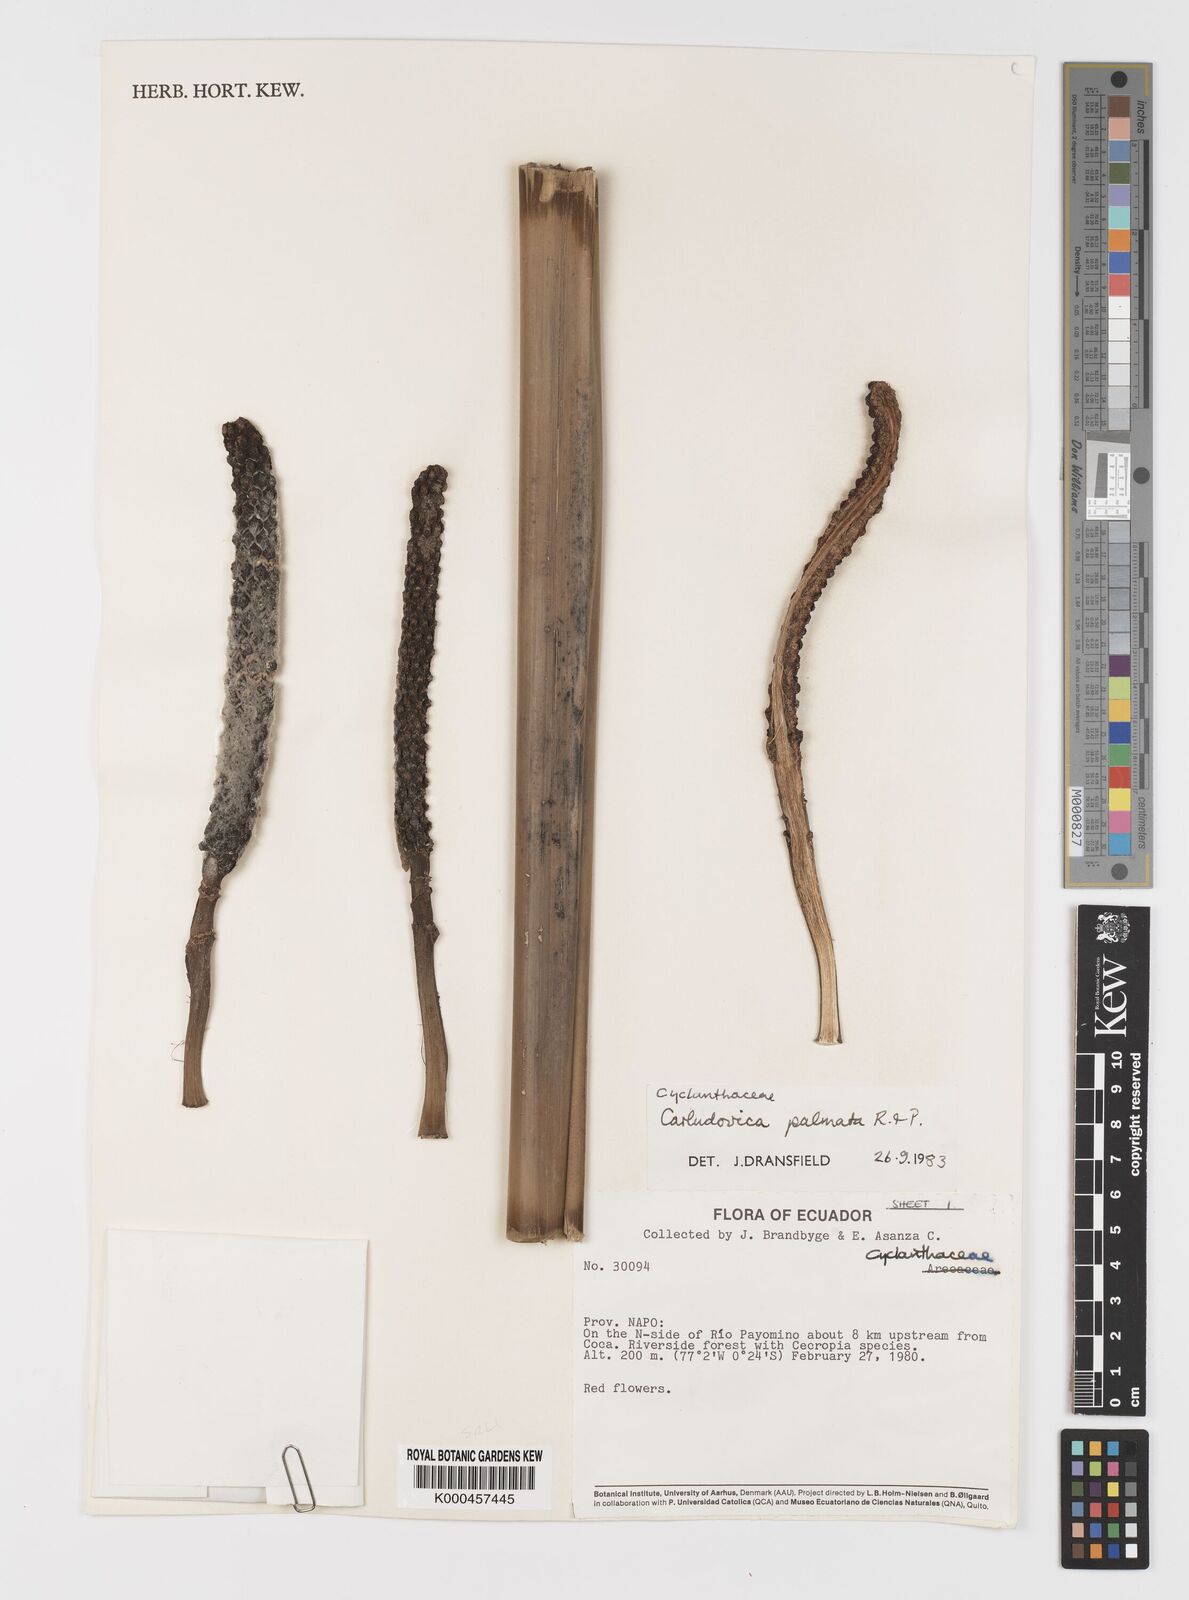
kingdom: Plantae
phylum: Tracheophyta
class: Liliopsida
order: Pandanales
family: Cyclanthaceae
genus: Carludovica
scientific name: Carludovica palmata
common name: Panama hat plant
